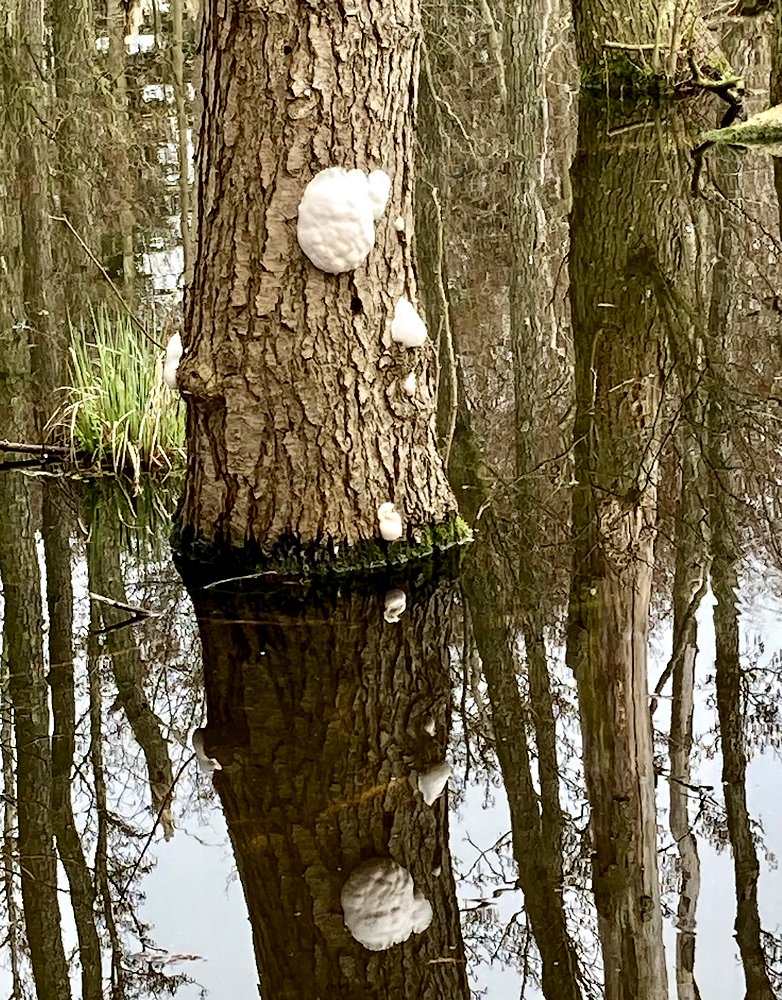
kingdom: Protozoa
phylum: Mycetozoa
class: Myxomycetes
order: Cribrariales
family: Tubiferaceae
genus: Reticularia
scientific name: Reticularia lycoperdon
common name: skinnende støvpude
